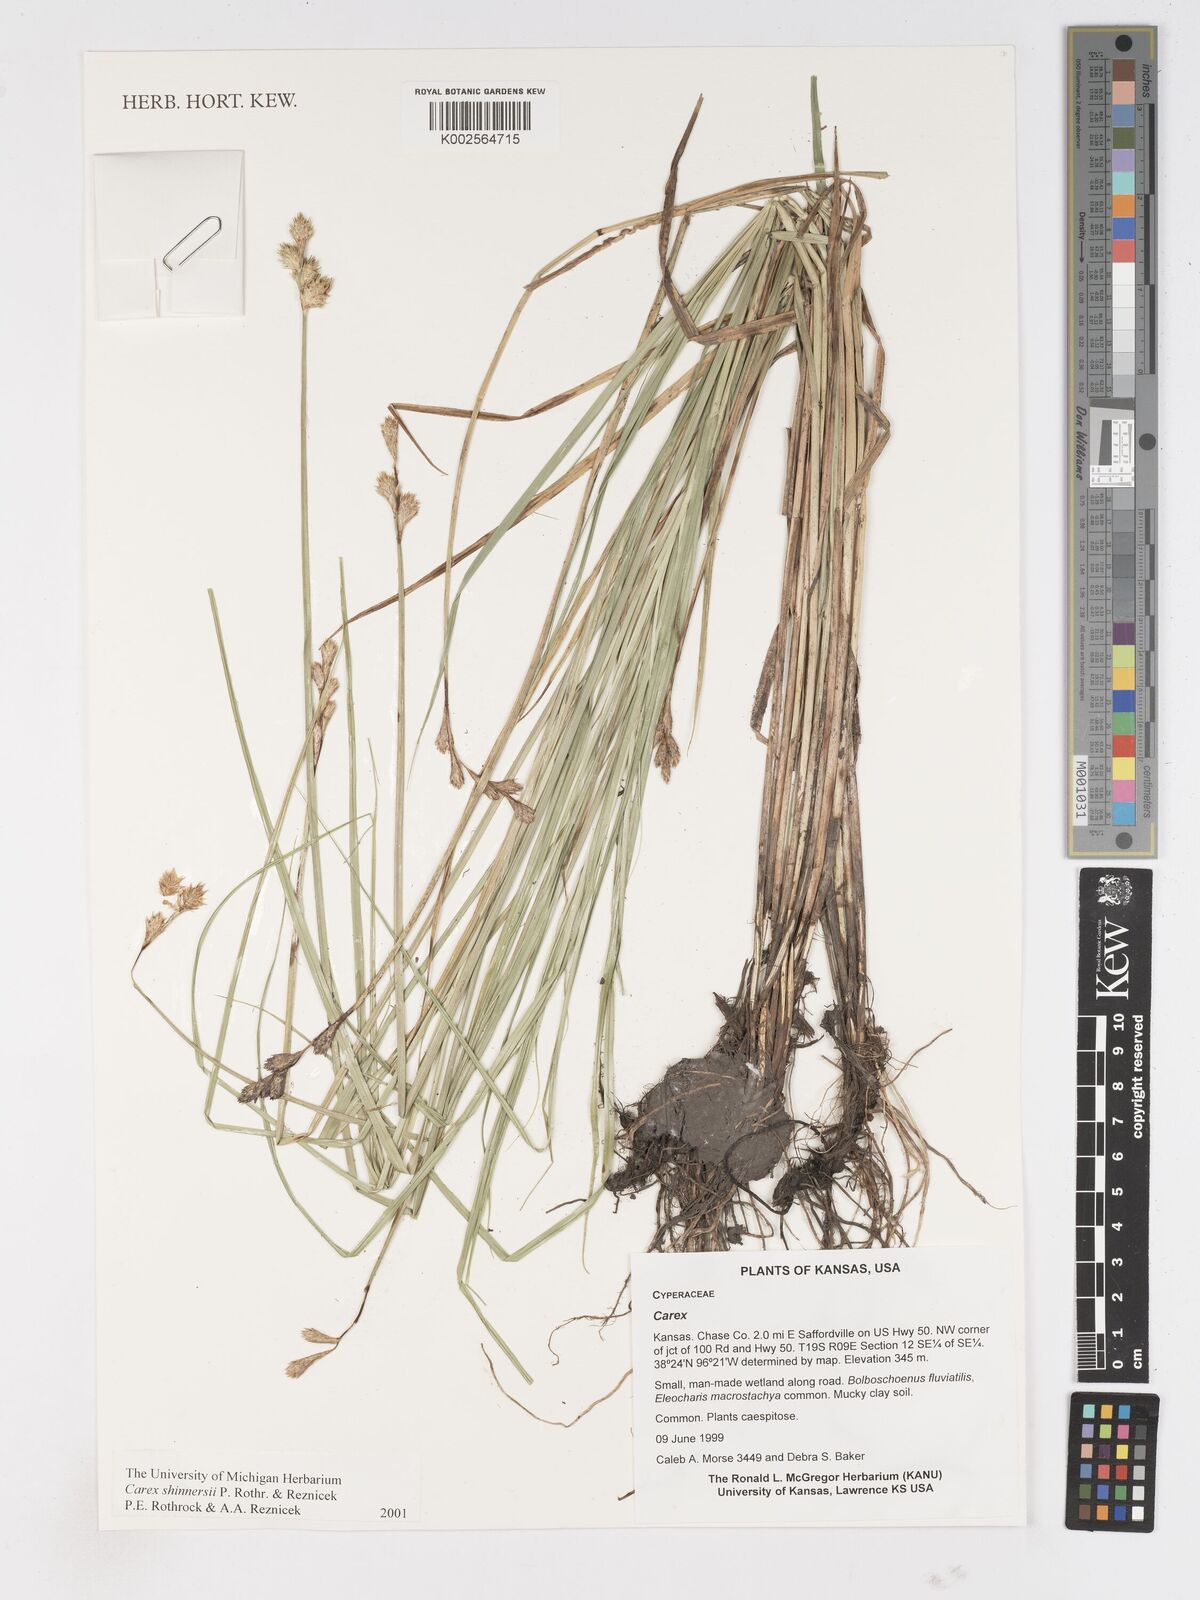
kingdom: Plantae
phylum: Tracheophyta
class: Liliopsida
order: Poales
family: Cyperaceae
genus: Carex
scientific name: Carex shinnersii
